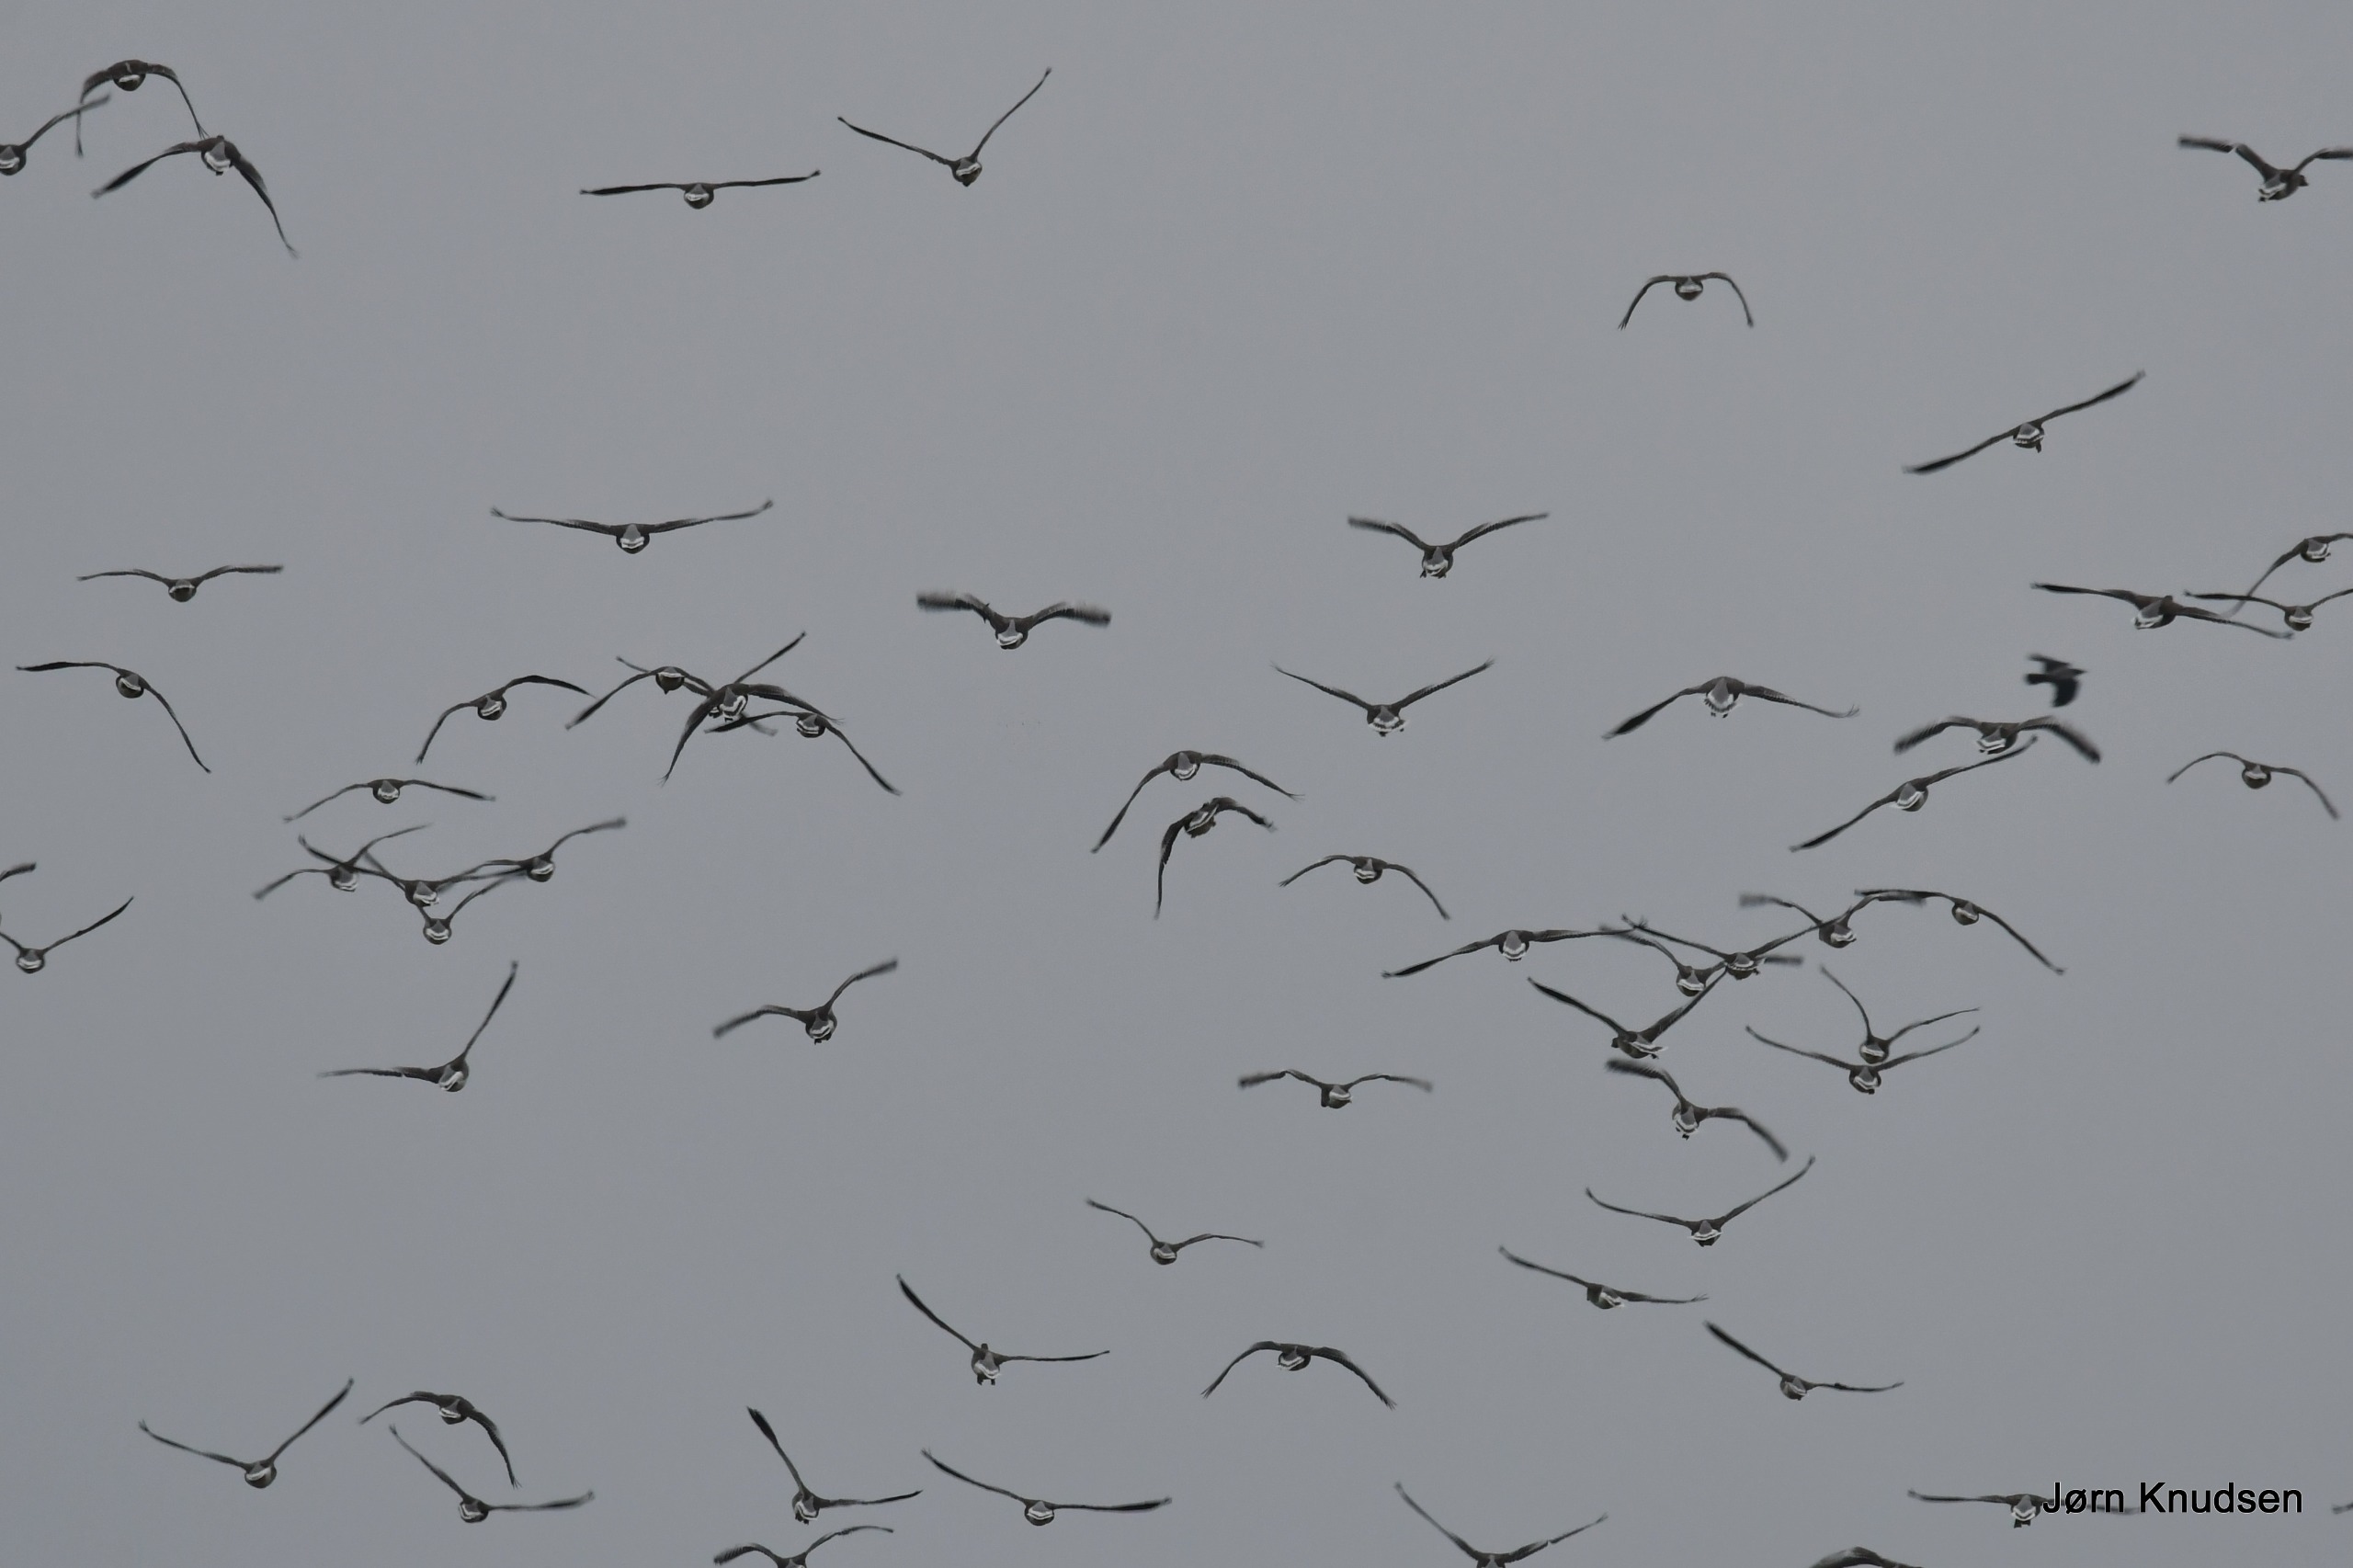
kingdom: Animalia
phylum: Chordata
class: Aves
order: Anseriformes
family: Anatidae
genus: Anser
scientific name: Anser anser
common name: Grågås
